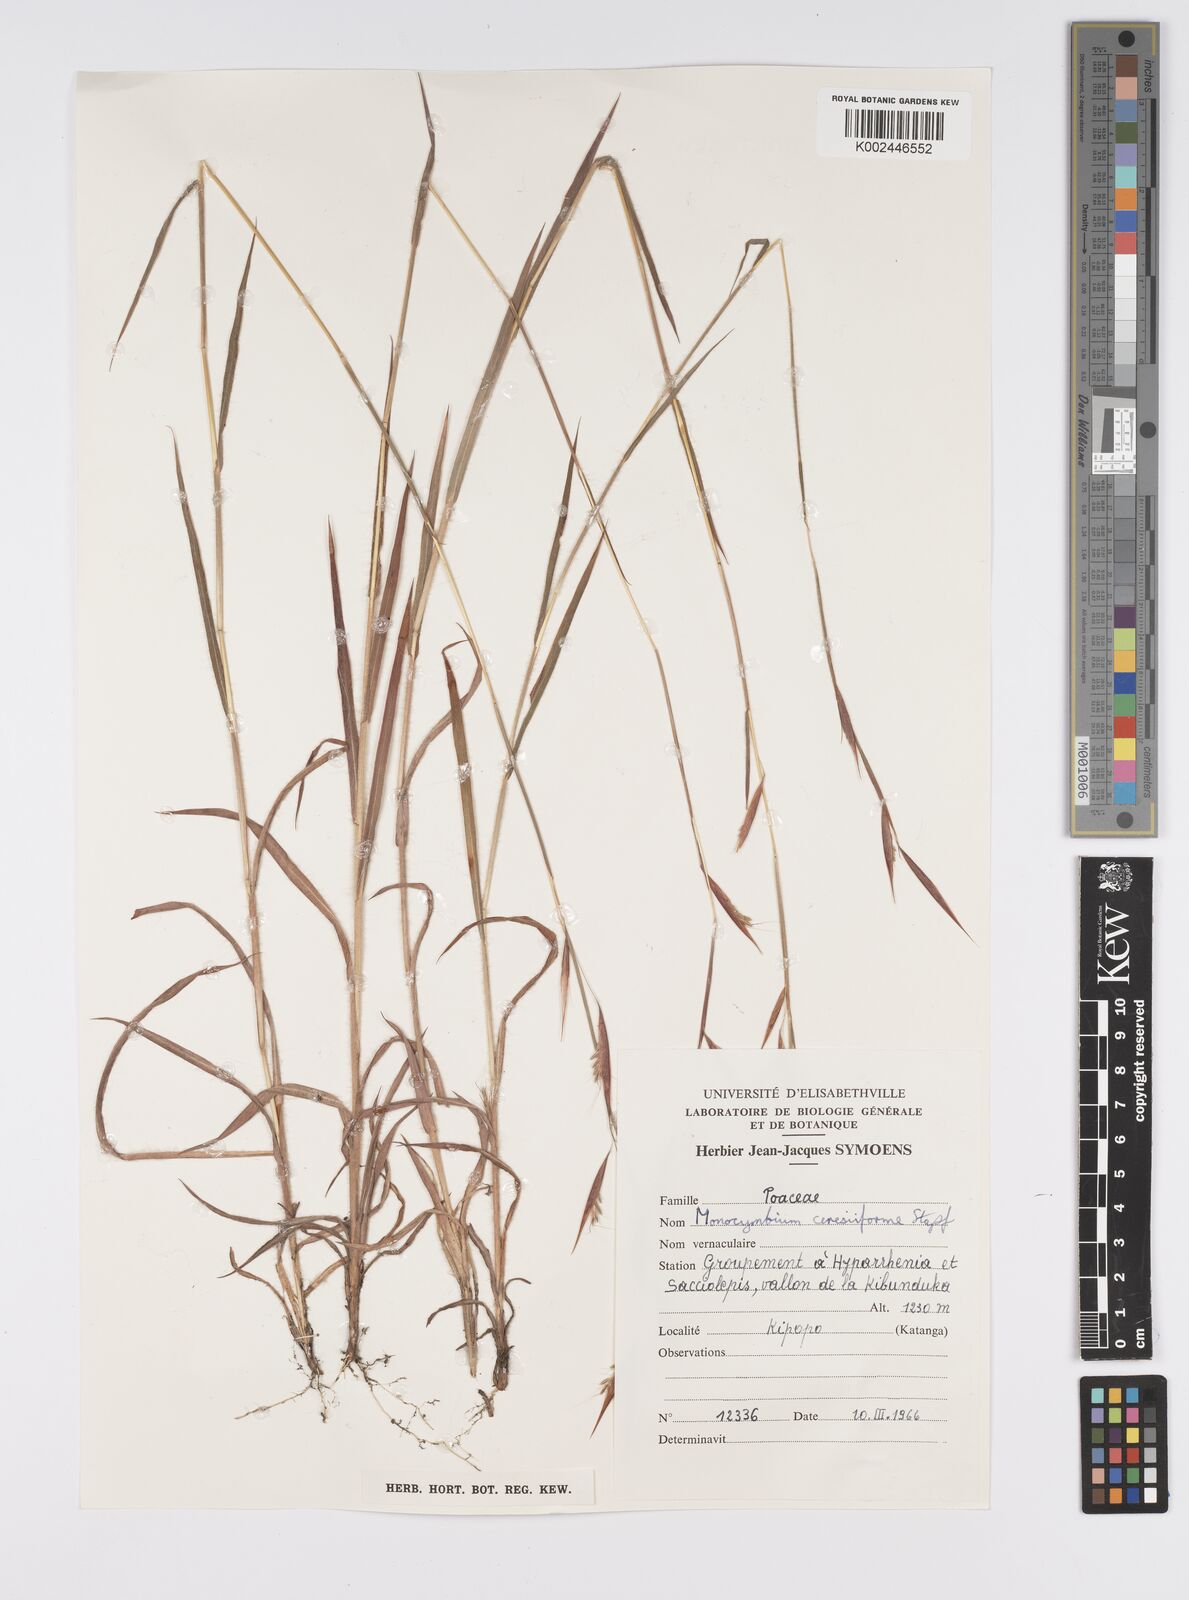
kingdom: Plantae
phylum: Tracheophyta
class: Liliopsida
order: Poales
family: Poaceae
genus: Monocymbium
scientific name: Monocymbium ceresiiforme
